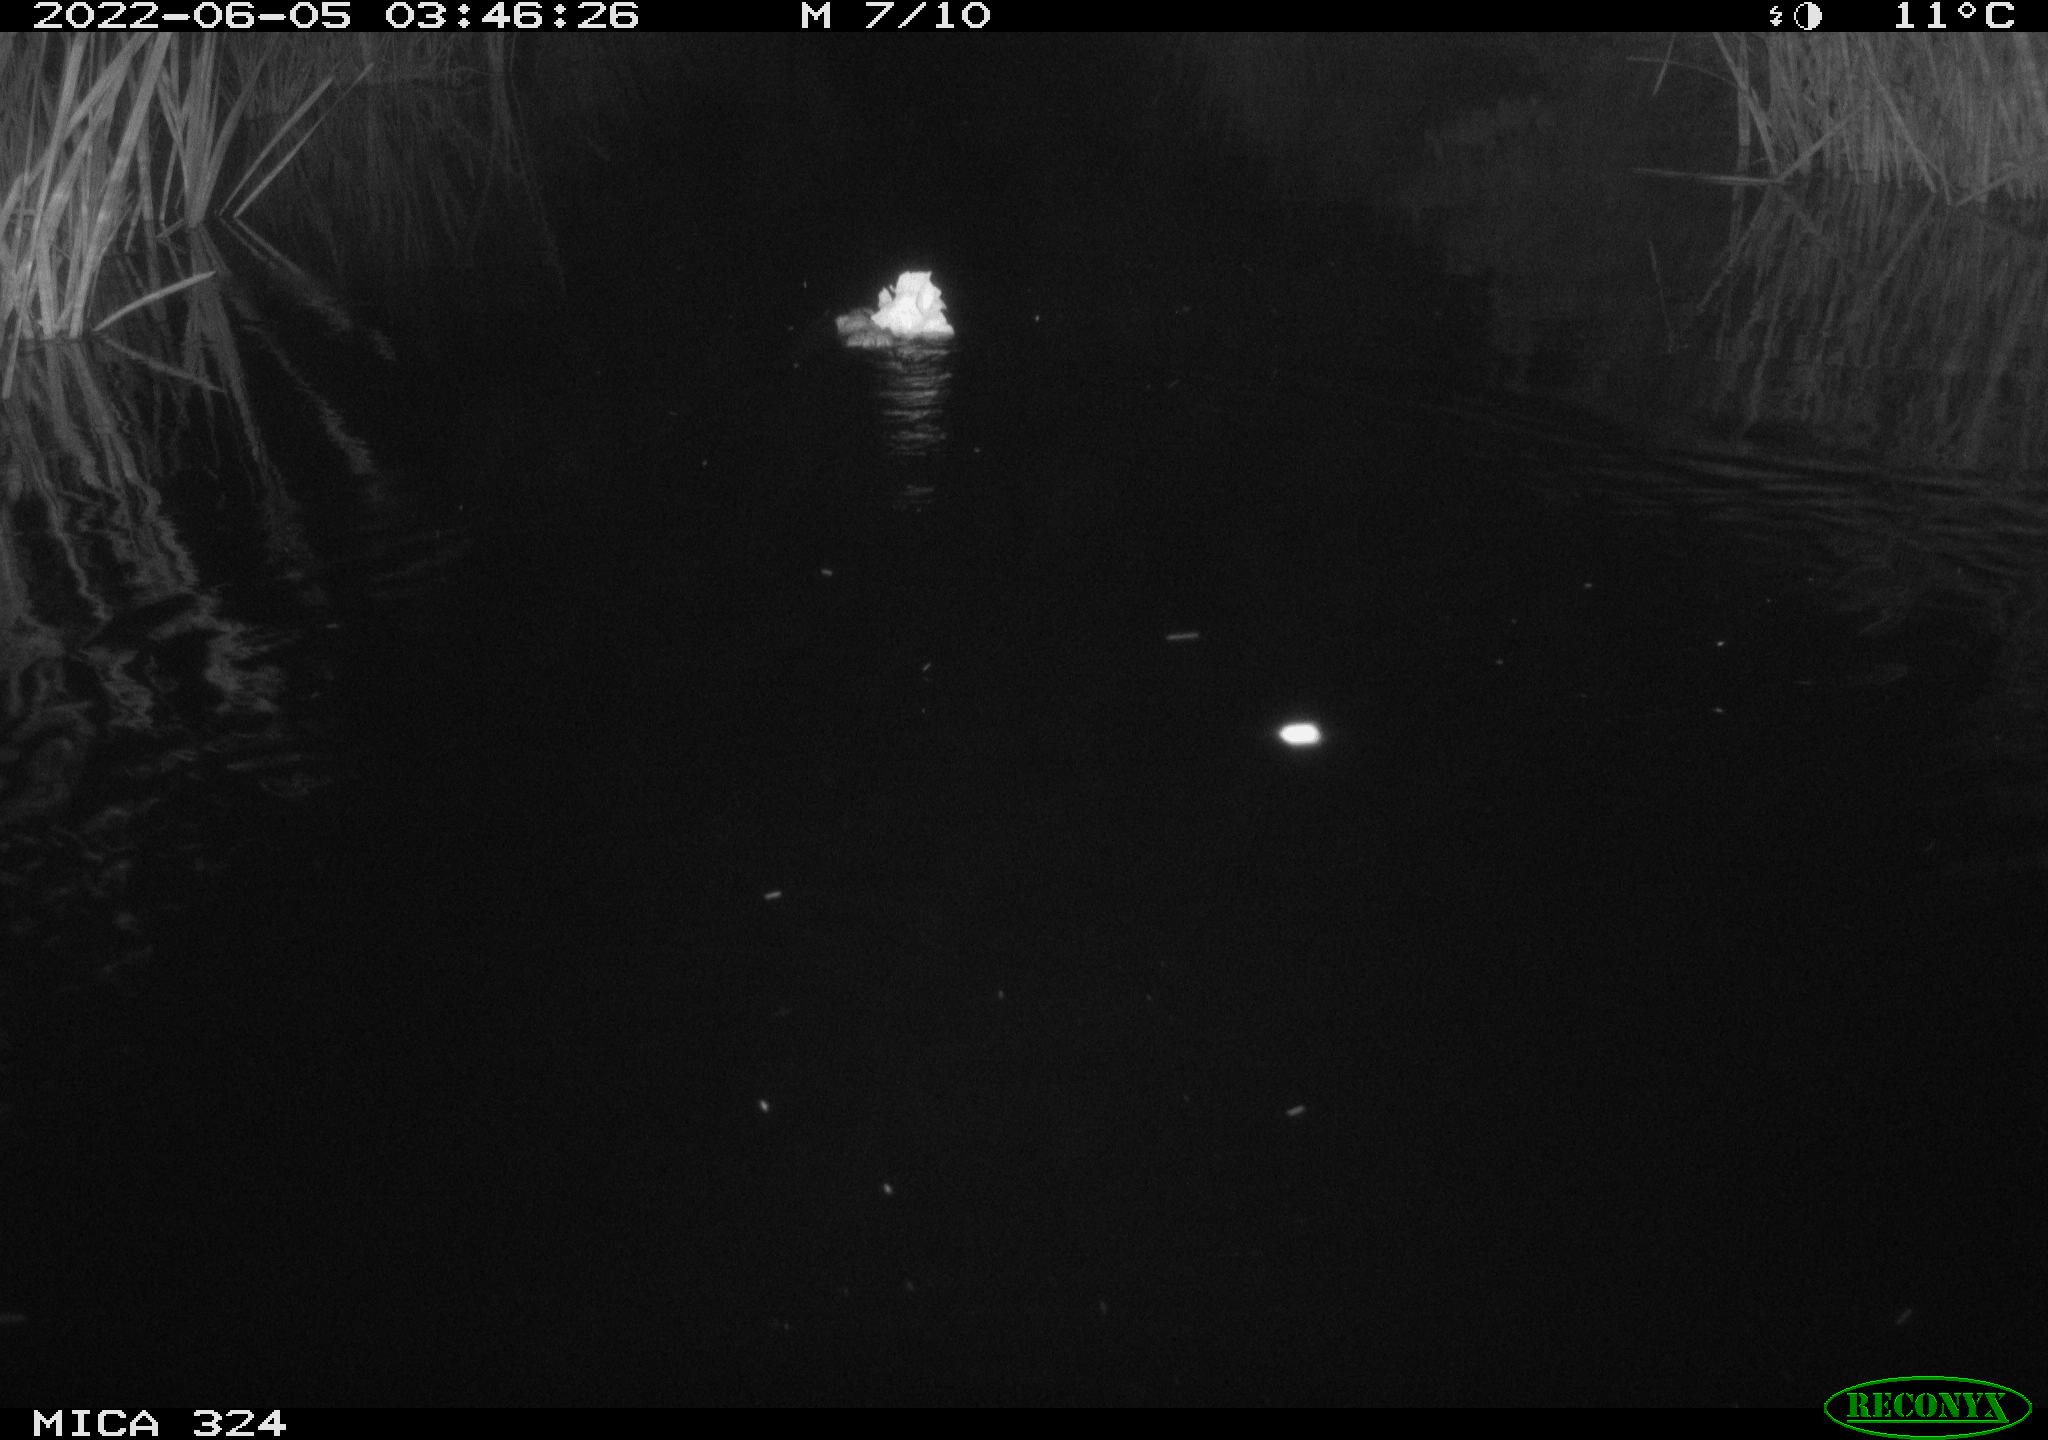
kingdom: Animalia
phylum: Chordata
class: Mammalia
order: Rodentia
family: Cricetidae
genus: Ondatra
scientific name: Ondatra zibethicus
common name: Muskrat
